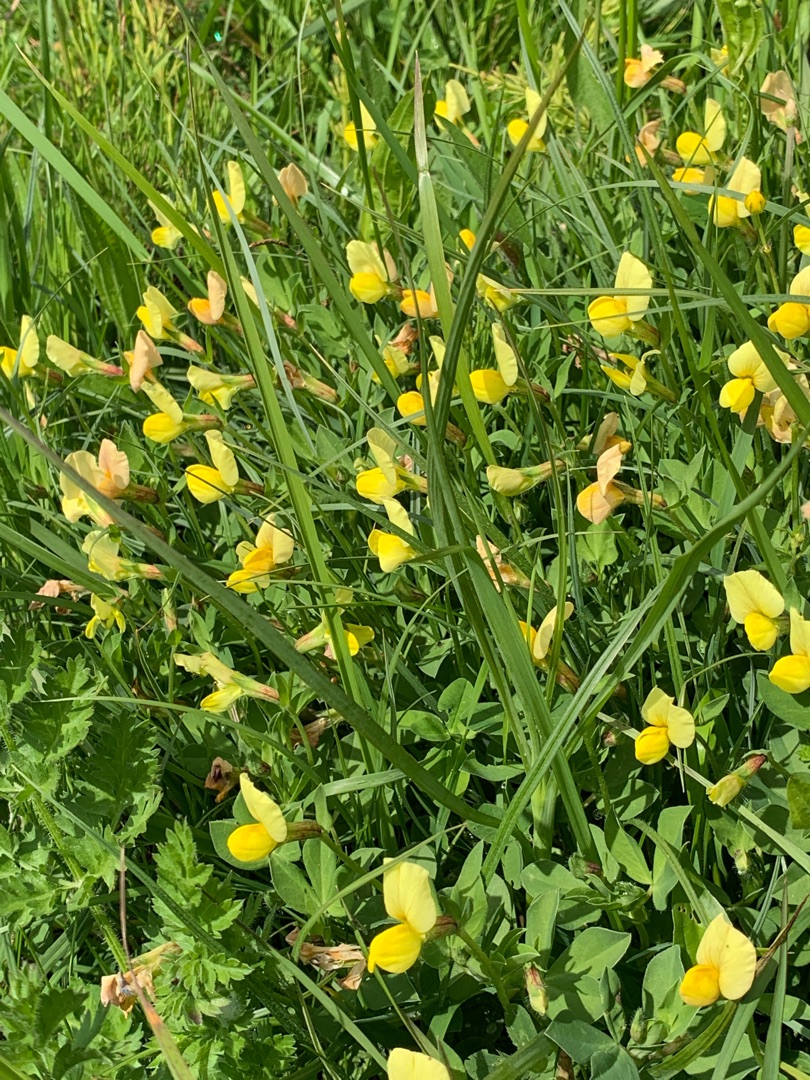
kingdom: Plantae
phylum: Tracheophyta
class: Magnoliopsida
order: Fabales
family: Fabaceae
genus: Lotus
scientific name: Lotus maritimus
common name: Kantbælg
